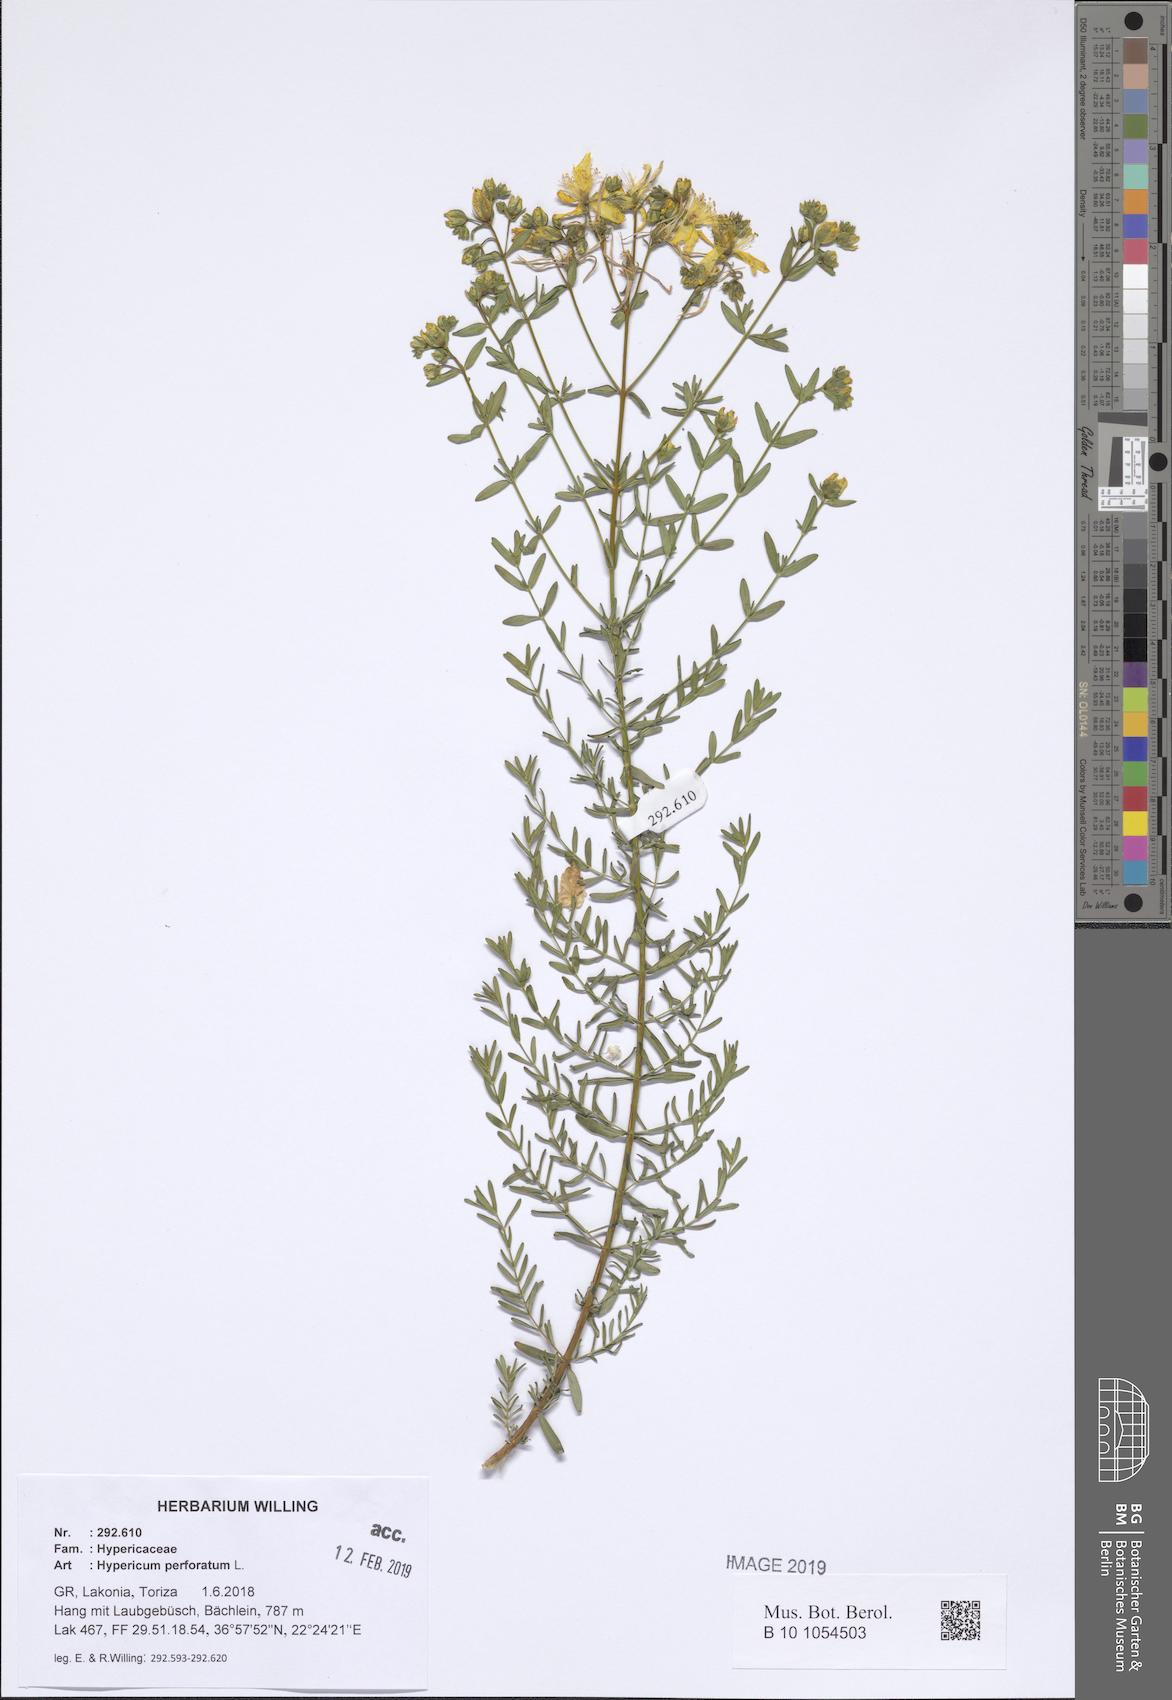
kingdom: Plantae
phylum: Tracheophyta
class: Magnoliopsida
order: Malpighiales
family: Hypericaceae
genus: Hypericum
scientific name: Hypericum perforatum
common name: Common st. johnswort
